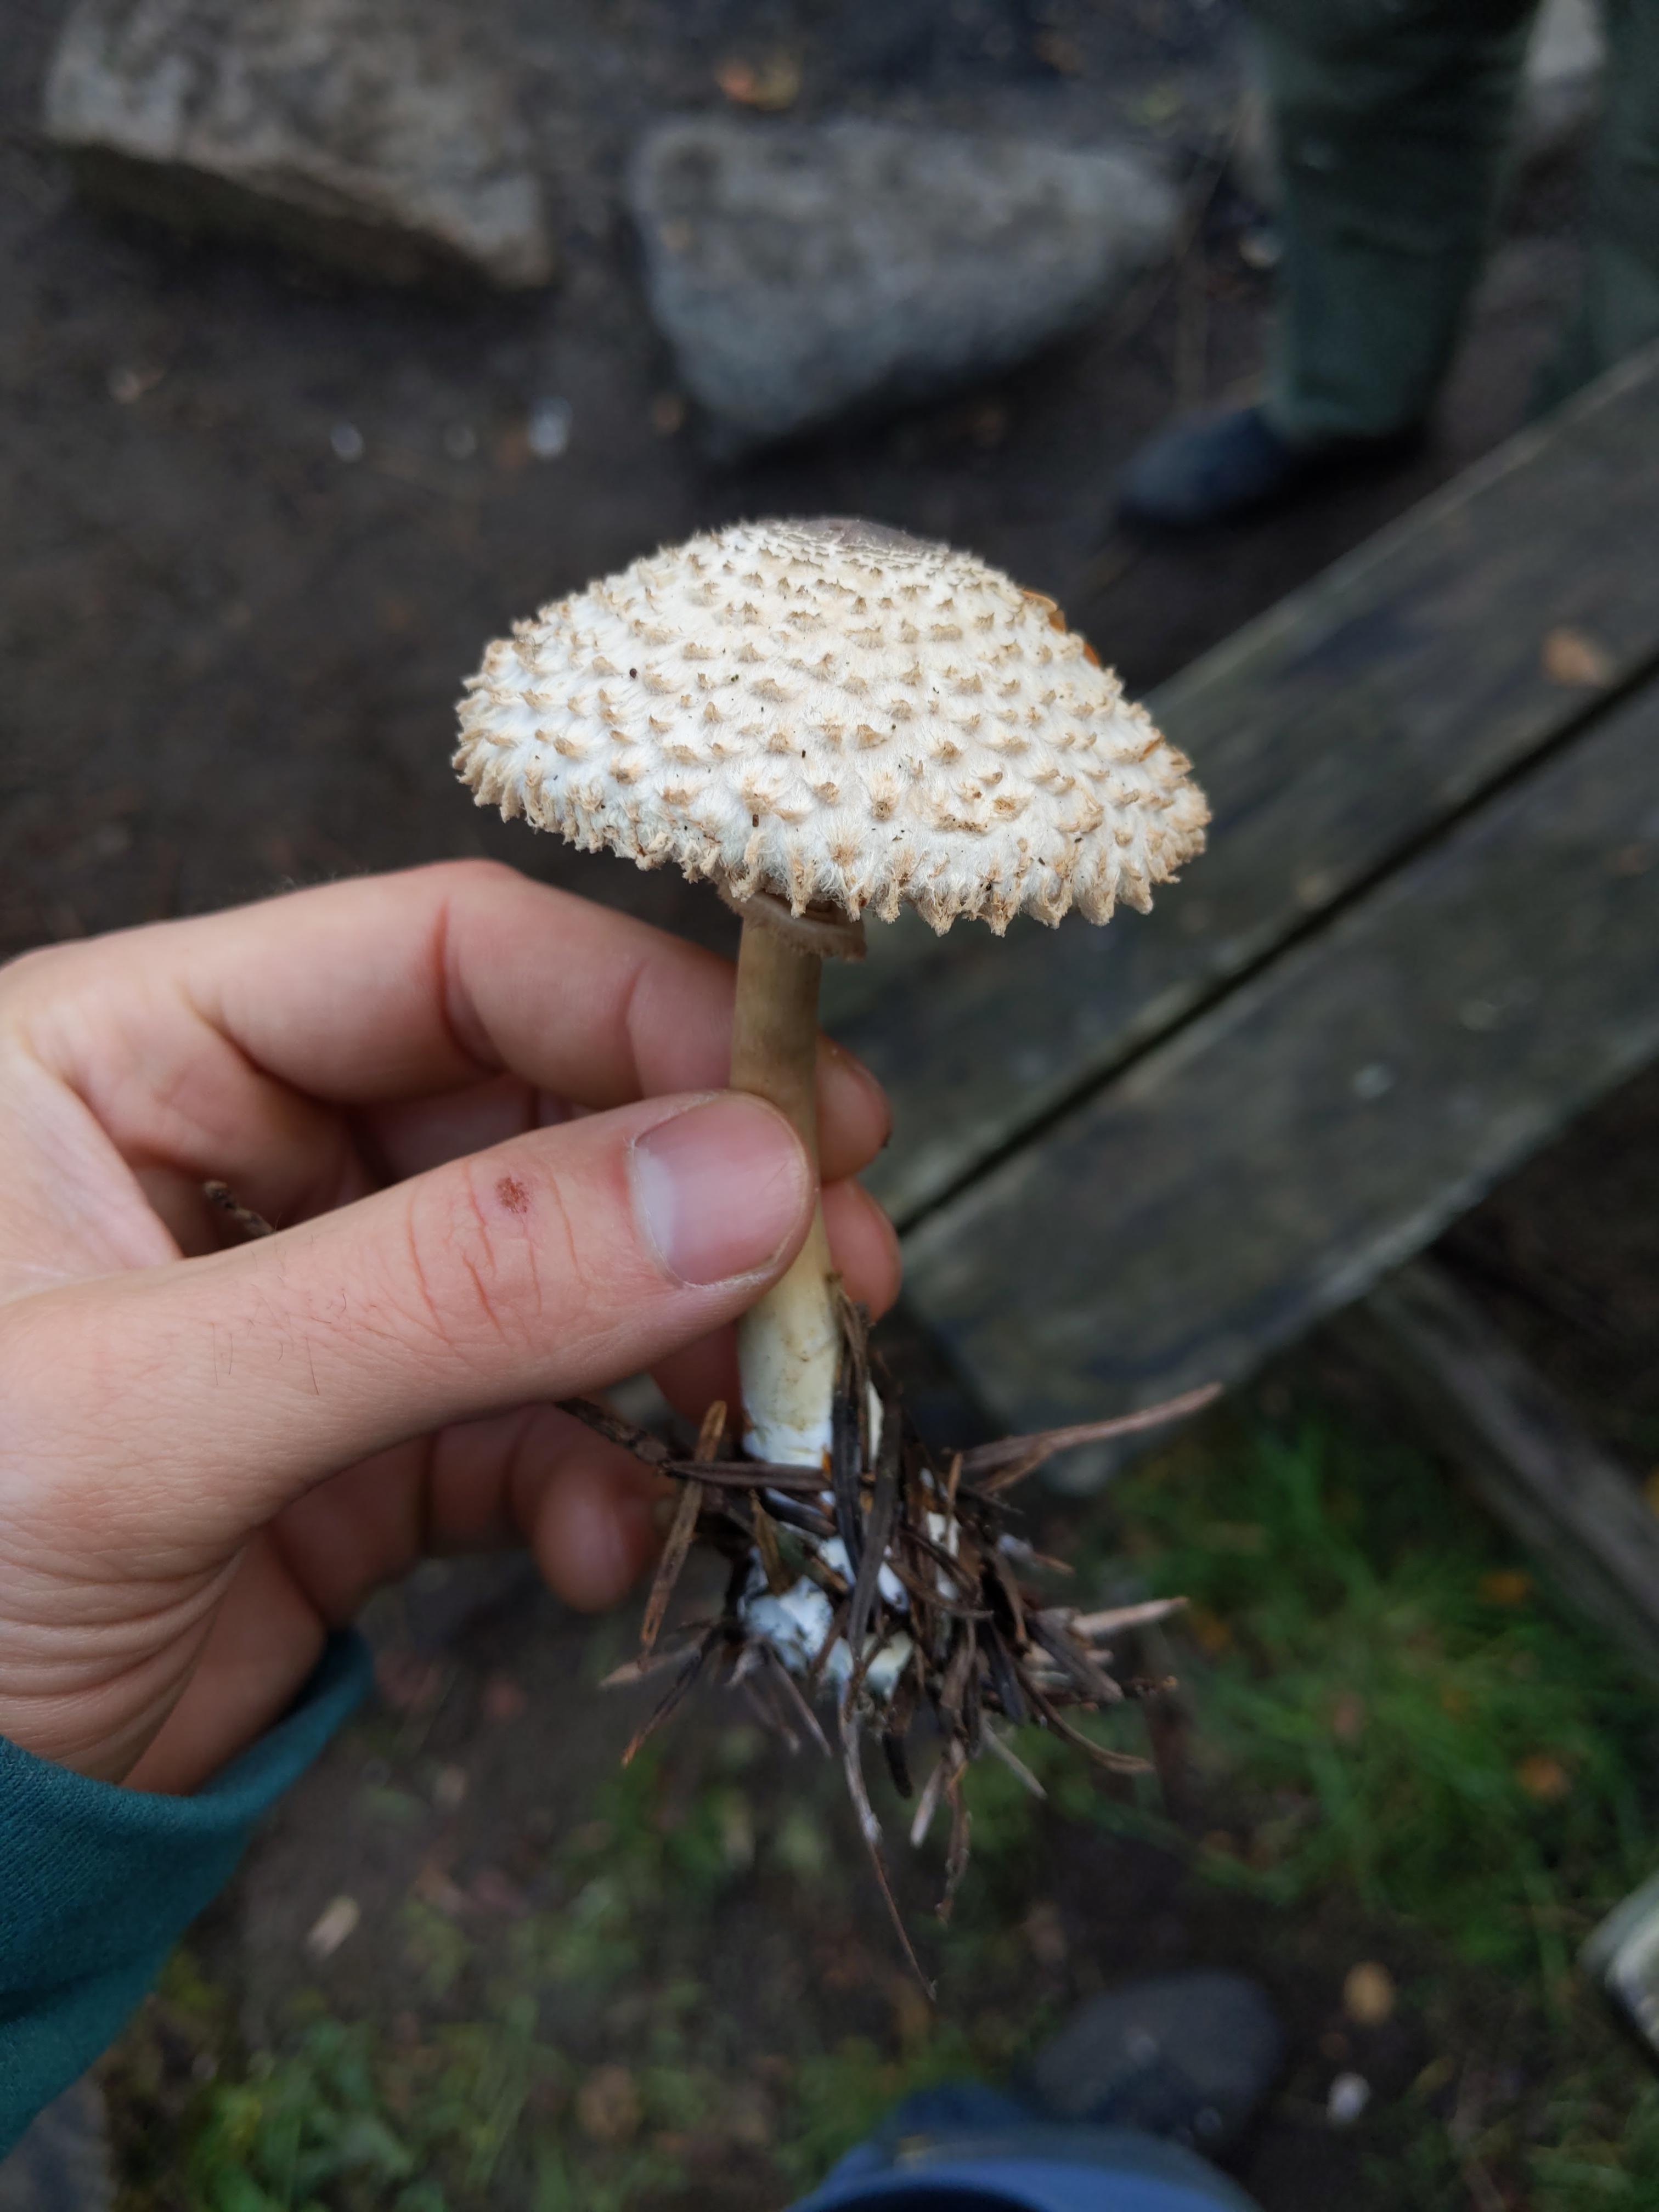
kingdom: Fungi
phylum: Basidiomycota
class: Agaricomycetes
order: Agaricales
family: Agaricaceae
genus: Leucoagaricus
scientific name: Leucoagaricus nympharum
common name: gran-silkehat
